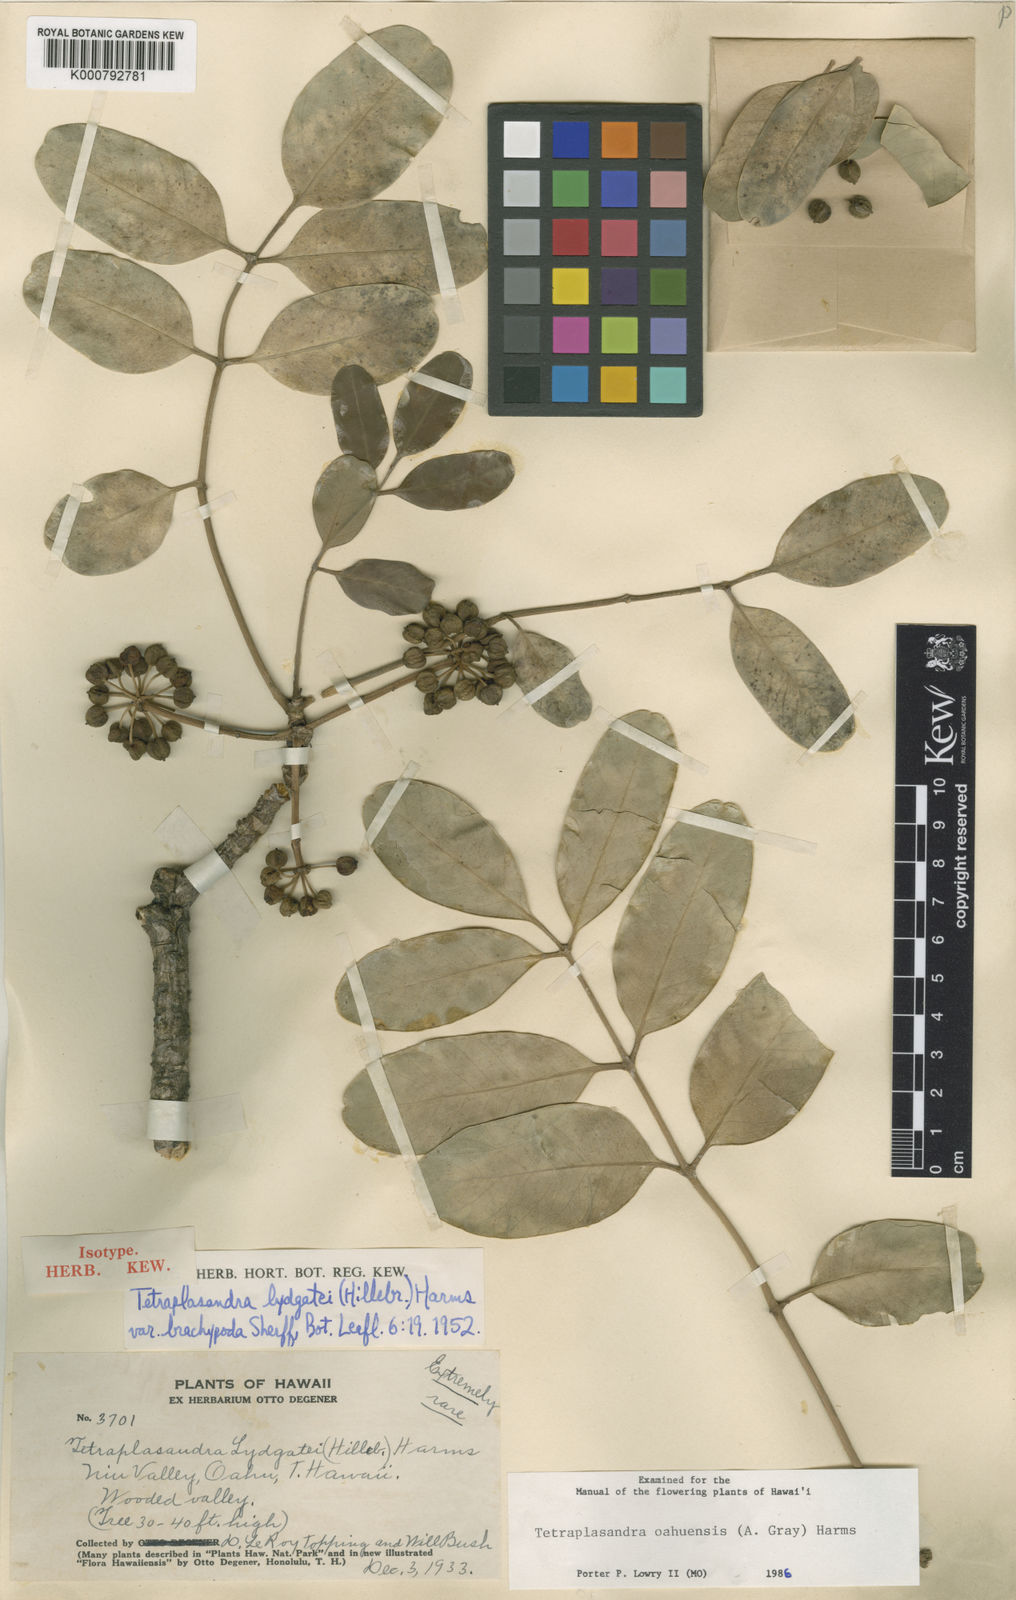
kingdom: Plantae
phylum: Tracheophyta
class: Magnoliopsida
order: Apiales
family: Araliaceae
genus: Polyscias
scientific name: Polyscias oahuensis
